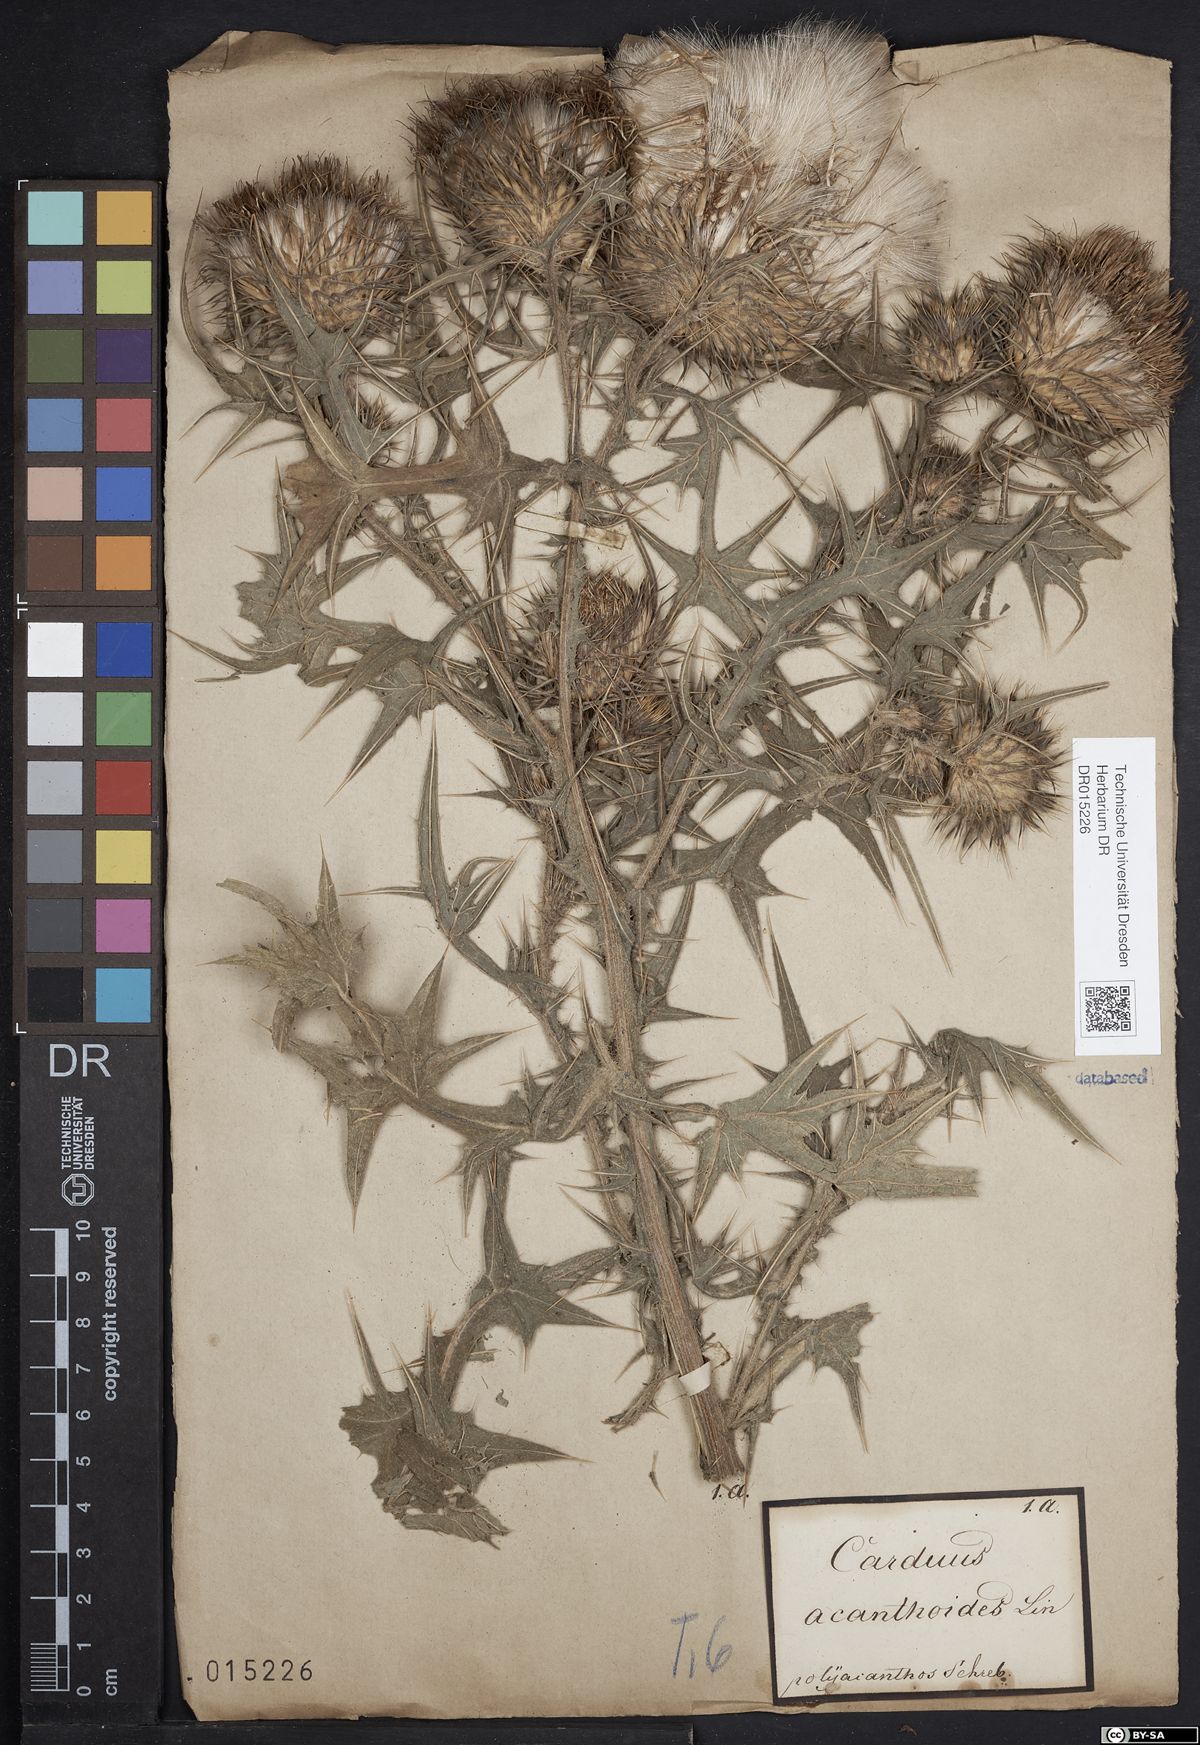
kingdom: Plantae
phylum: Tracheophyta
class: Magnoliopsida
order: Asterales
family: Asteraceae
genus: Cirsium
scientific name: Cirsium vulgare
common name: Bull thistle
